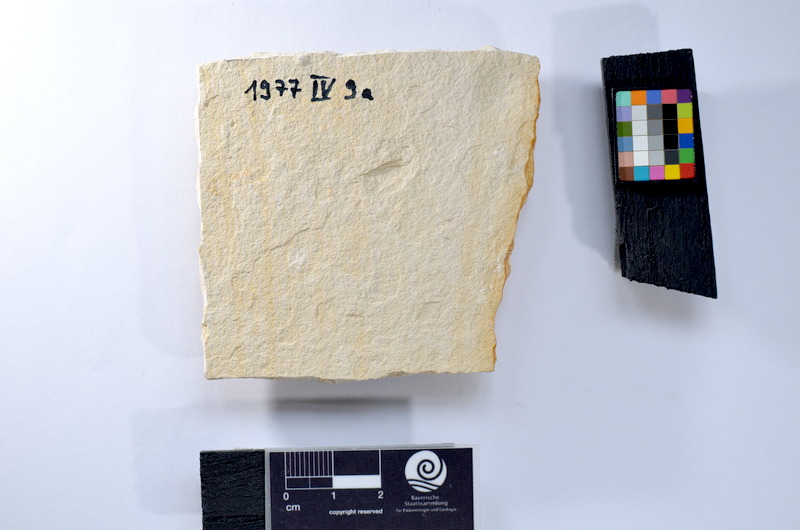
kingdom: Animalia
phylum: Chordata
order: Elopiformes
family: Anaethalionidae
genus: Anaethalion
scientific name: Anaethalion
